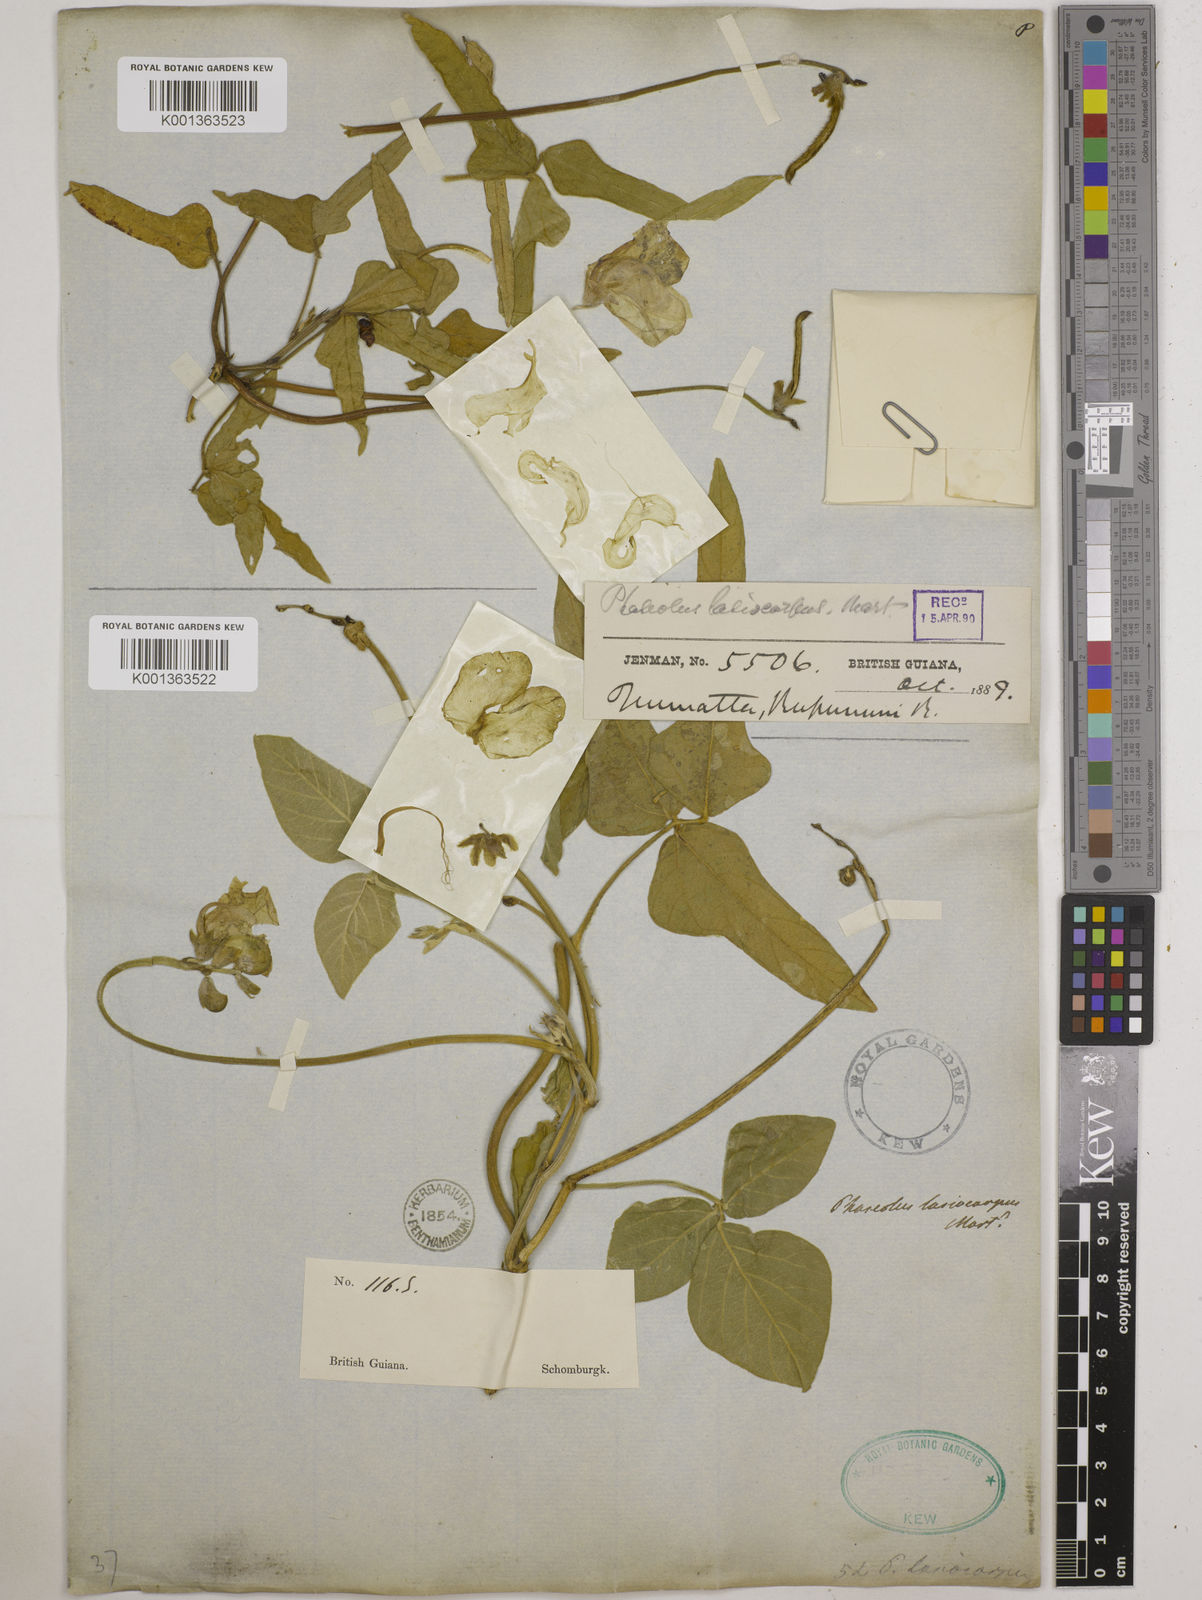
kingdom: Plantae
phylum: Tracheophyta
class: Magnoliopsida
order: Fabales
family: Fabaceae
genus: Vigna
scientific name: Vigna lasiocarpa
